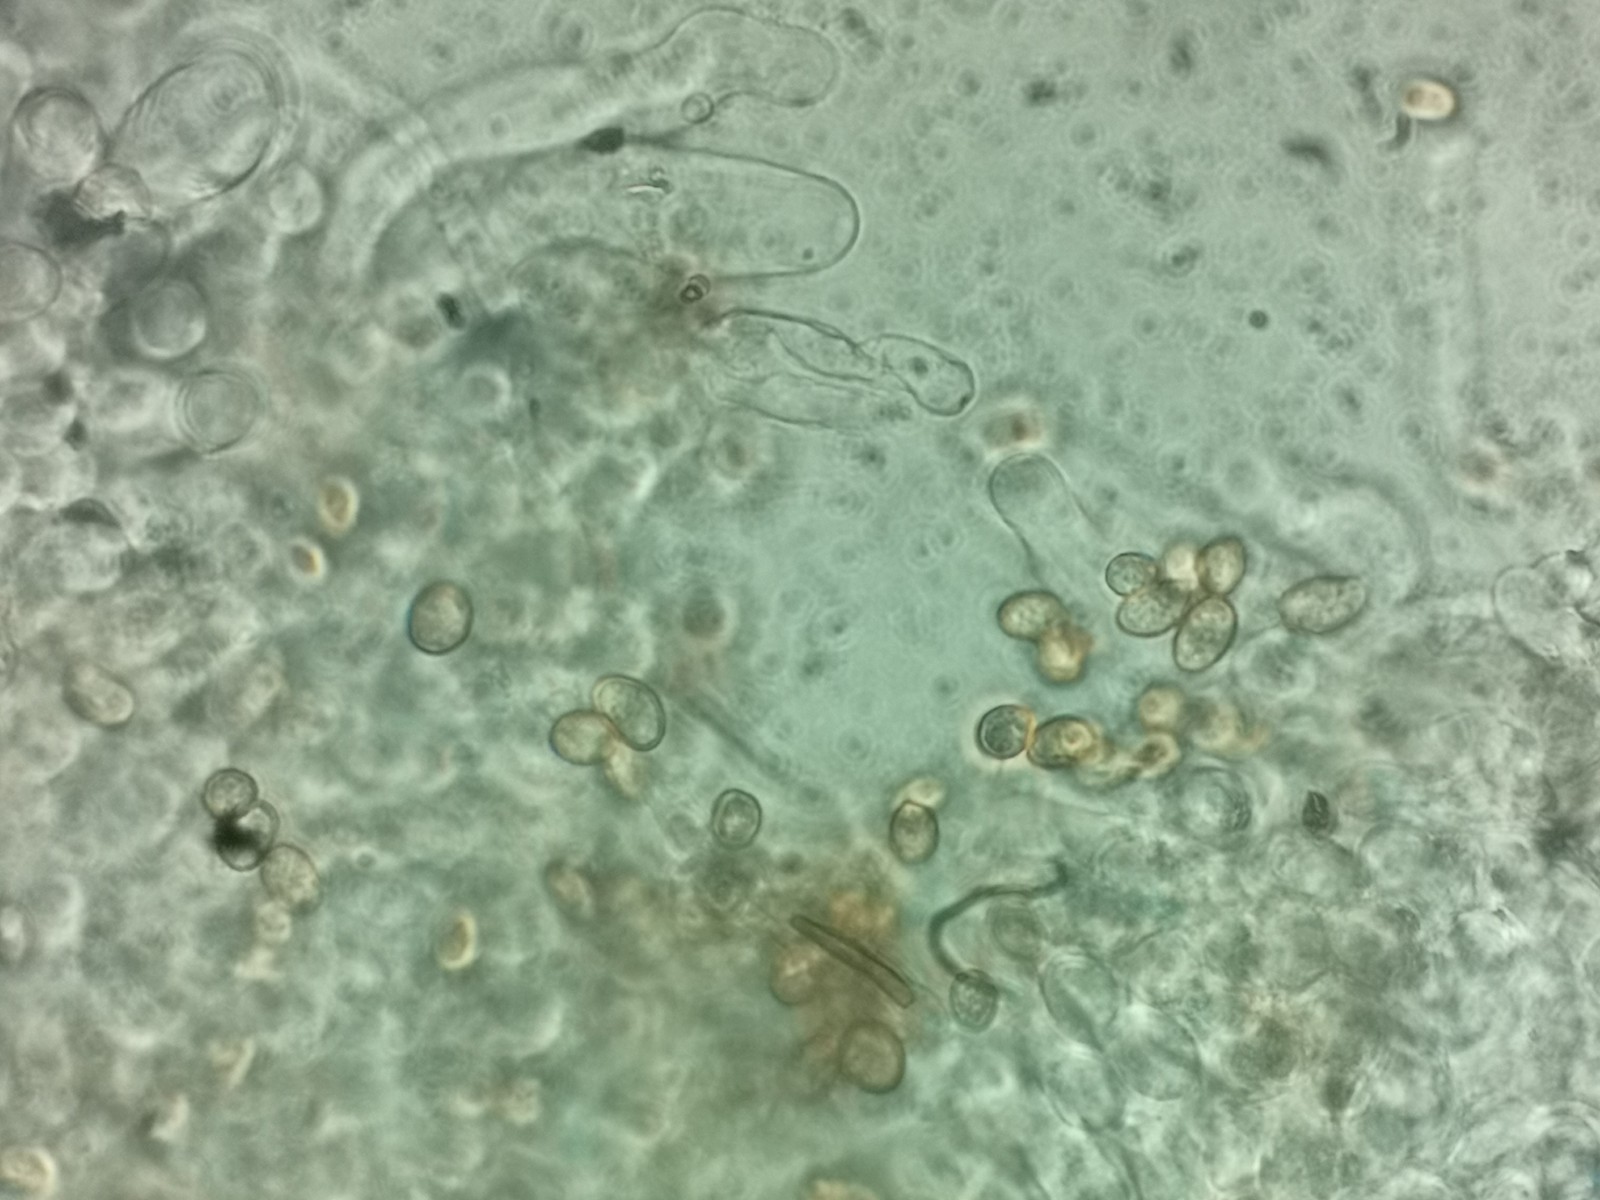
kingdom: Fungi
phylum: Basidiomycota
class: Agaricomycetes
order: Agaricales
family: Crepidotaceae
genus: Crepidotus
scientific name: Crepidotus caspari
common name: Lundells muslingesvamp
